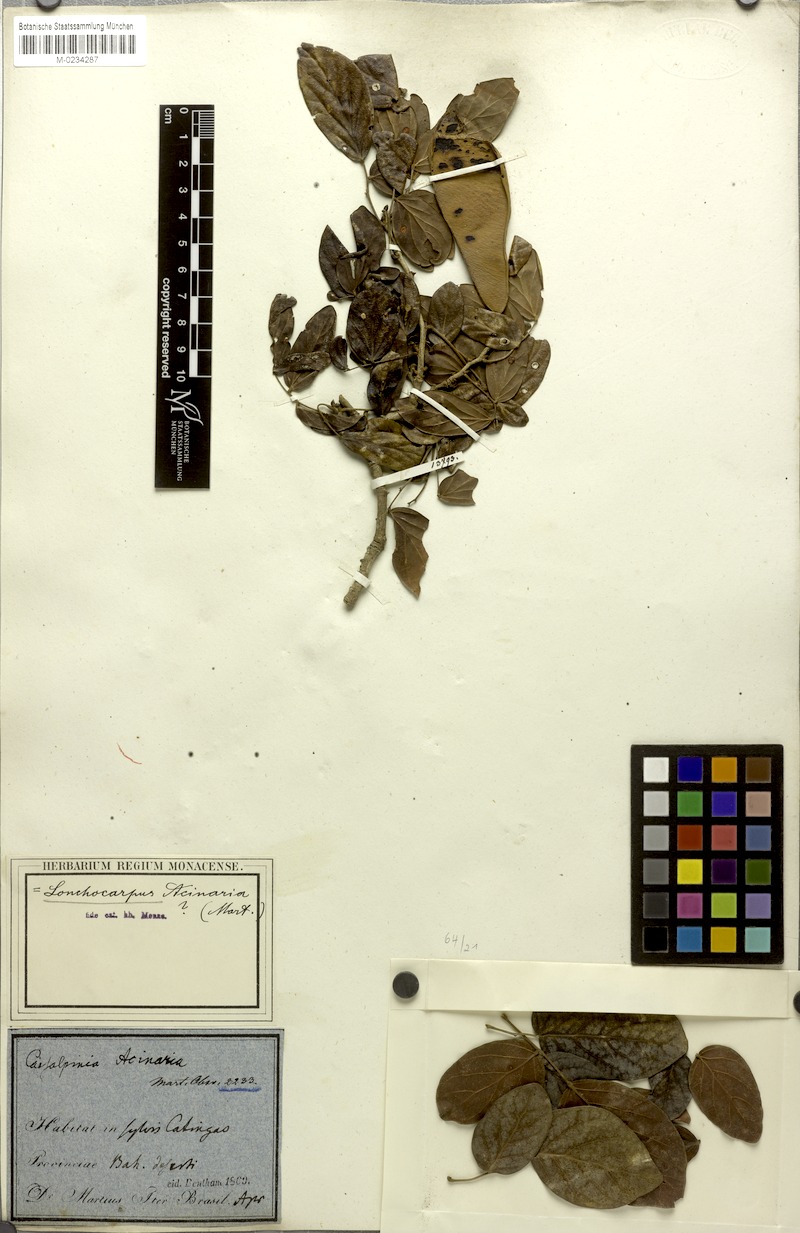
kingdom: Plantae
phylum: Tracheophyta
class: Magnoliopsida
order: Fabales
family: Fabaceae
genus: Poecilanthe
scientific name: Poecilanthe falcata
